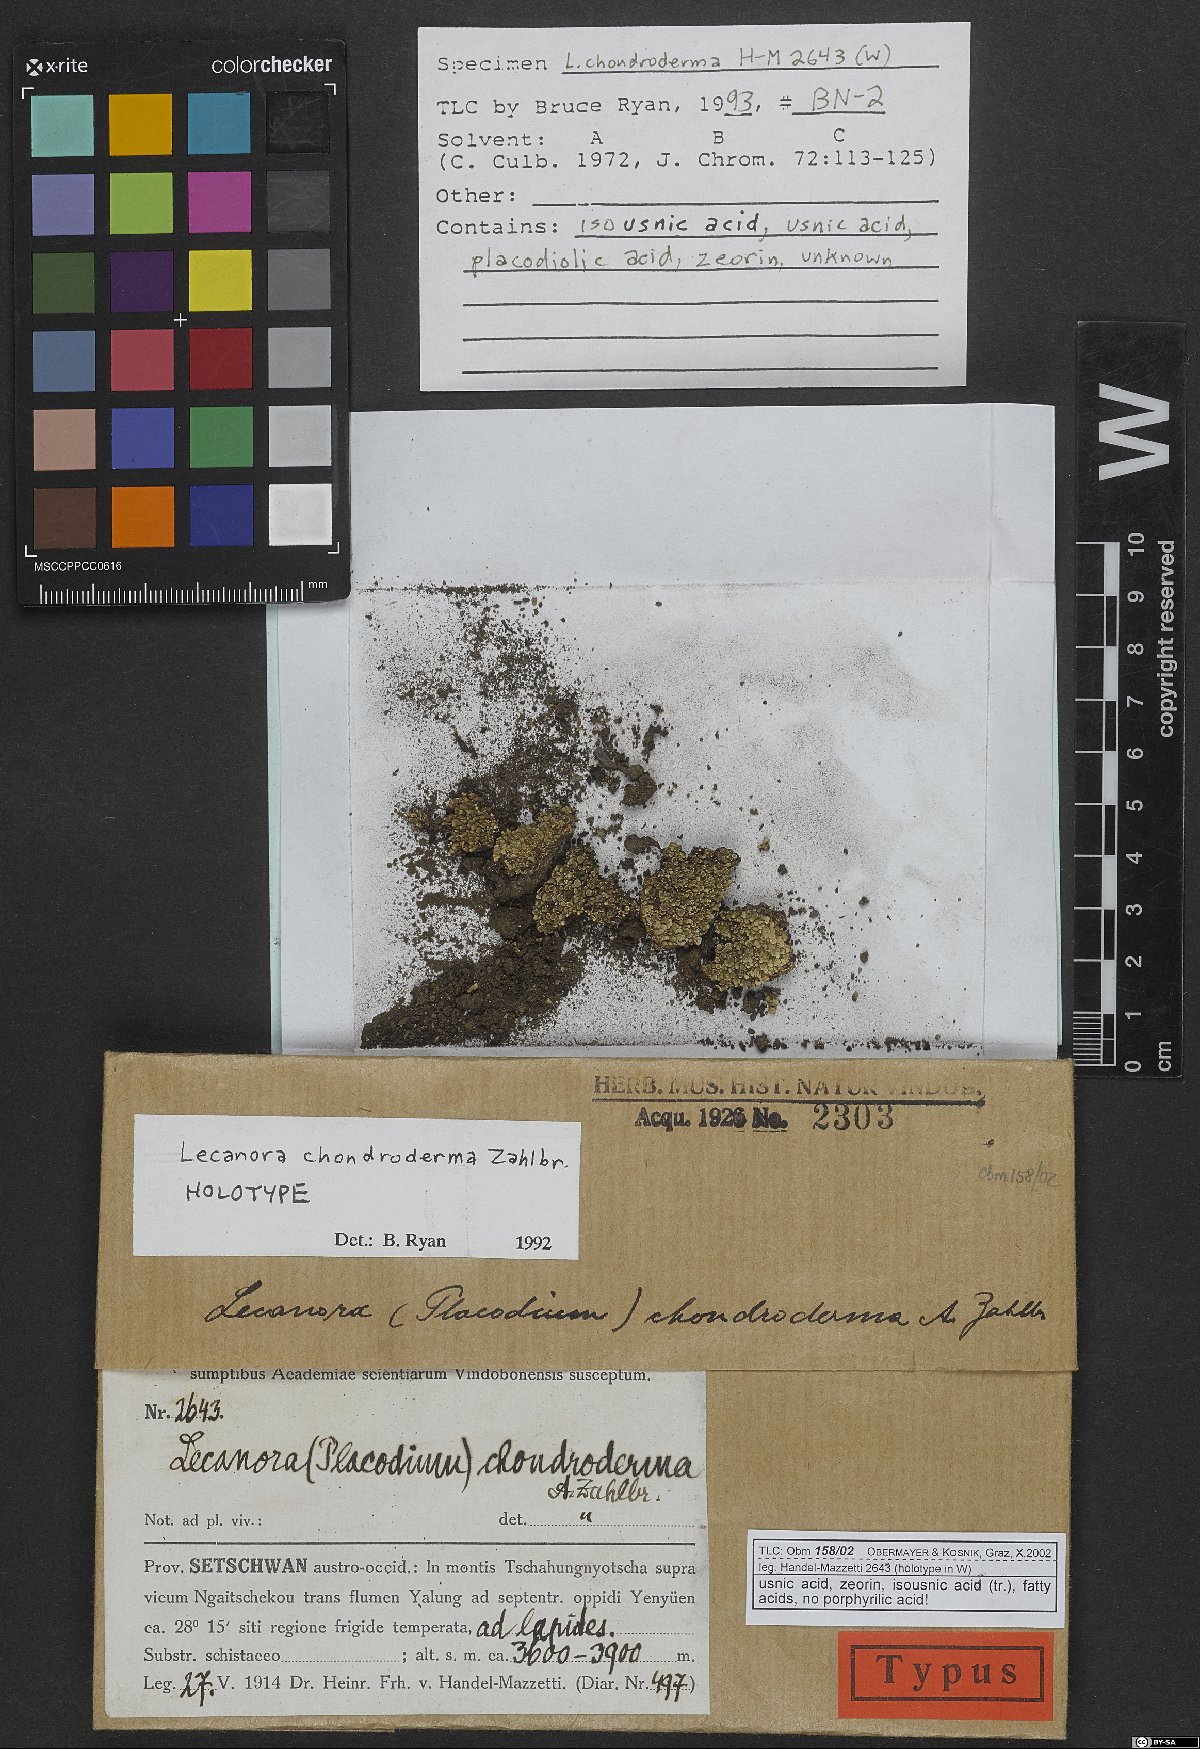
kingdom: Fungi
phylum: Ascomycota
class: Lecanoromycetes
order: Lecanorales
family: Lecanoraceae
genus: Lecanora
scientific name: Lecanora chondroderma
